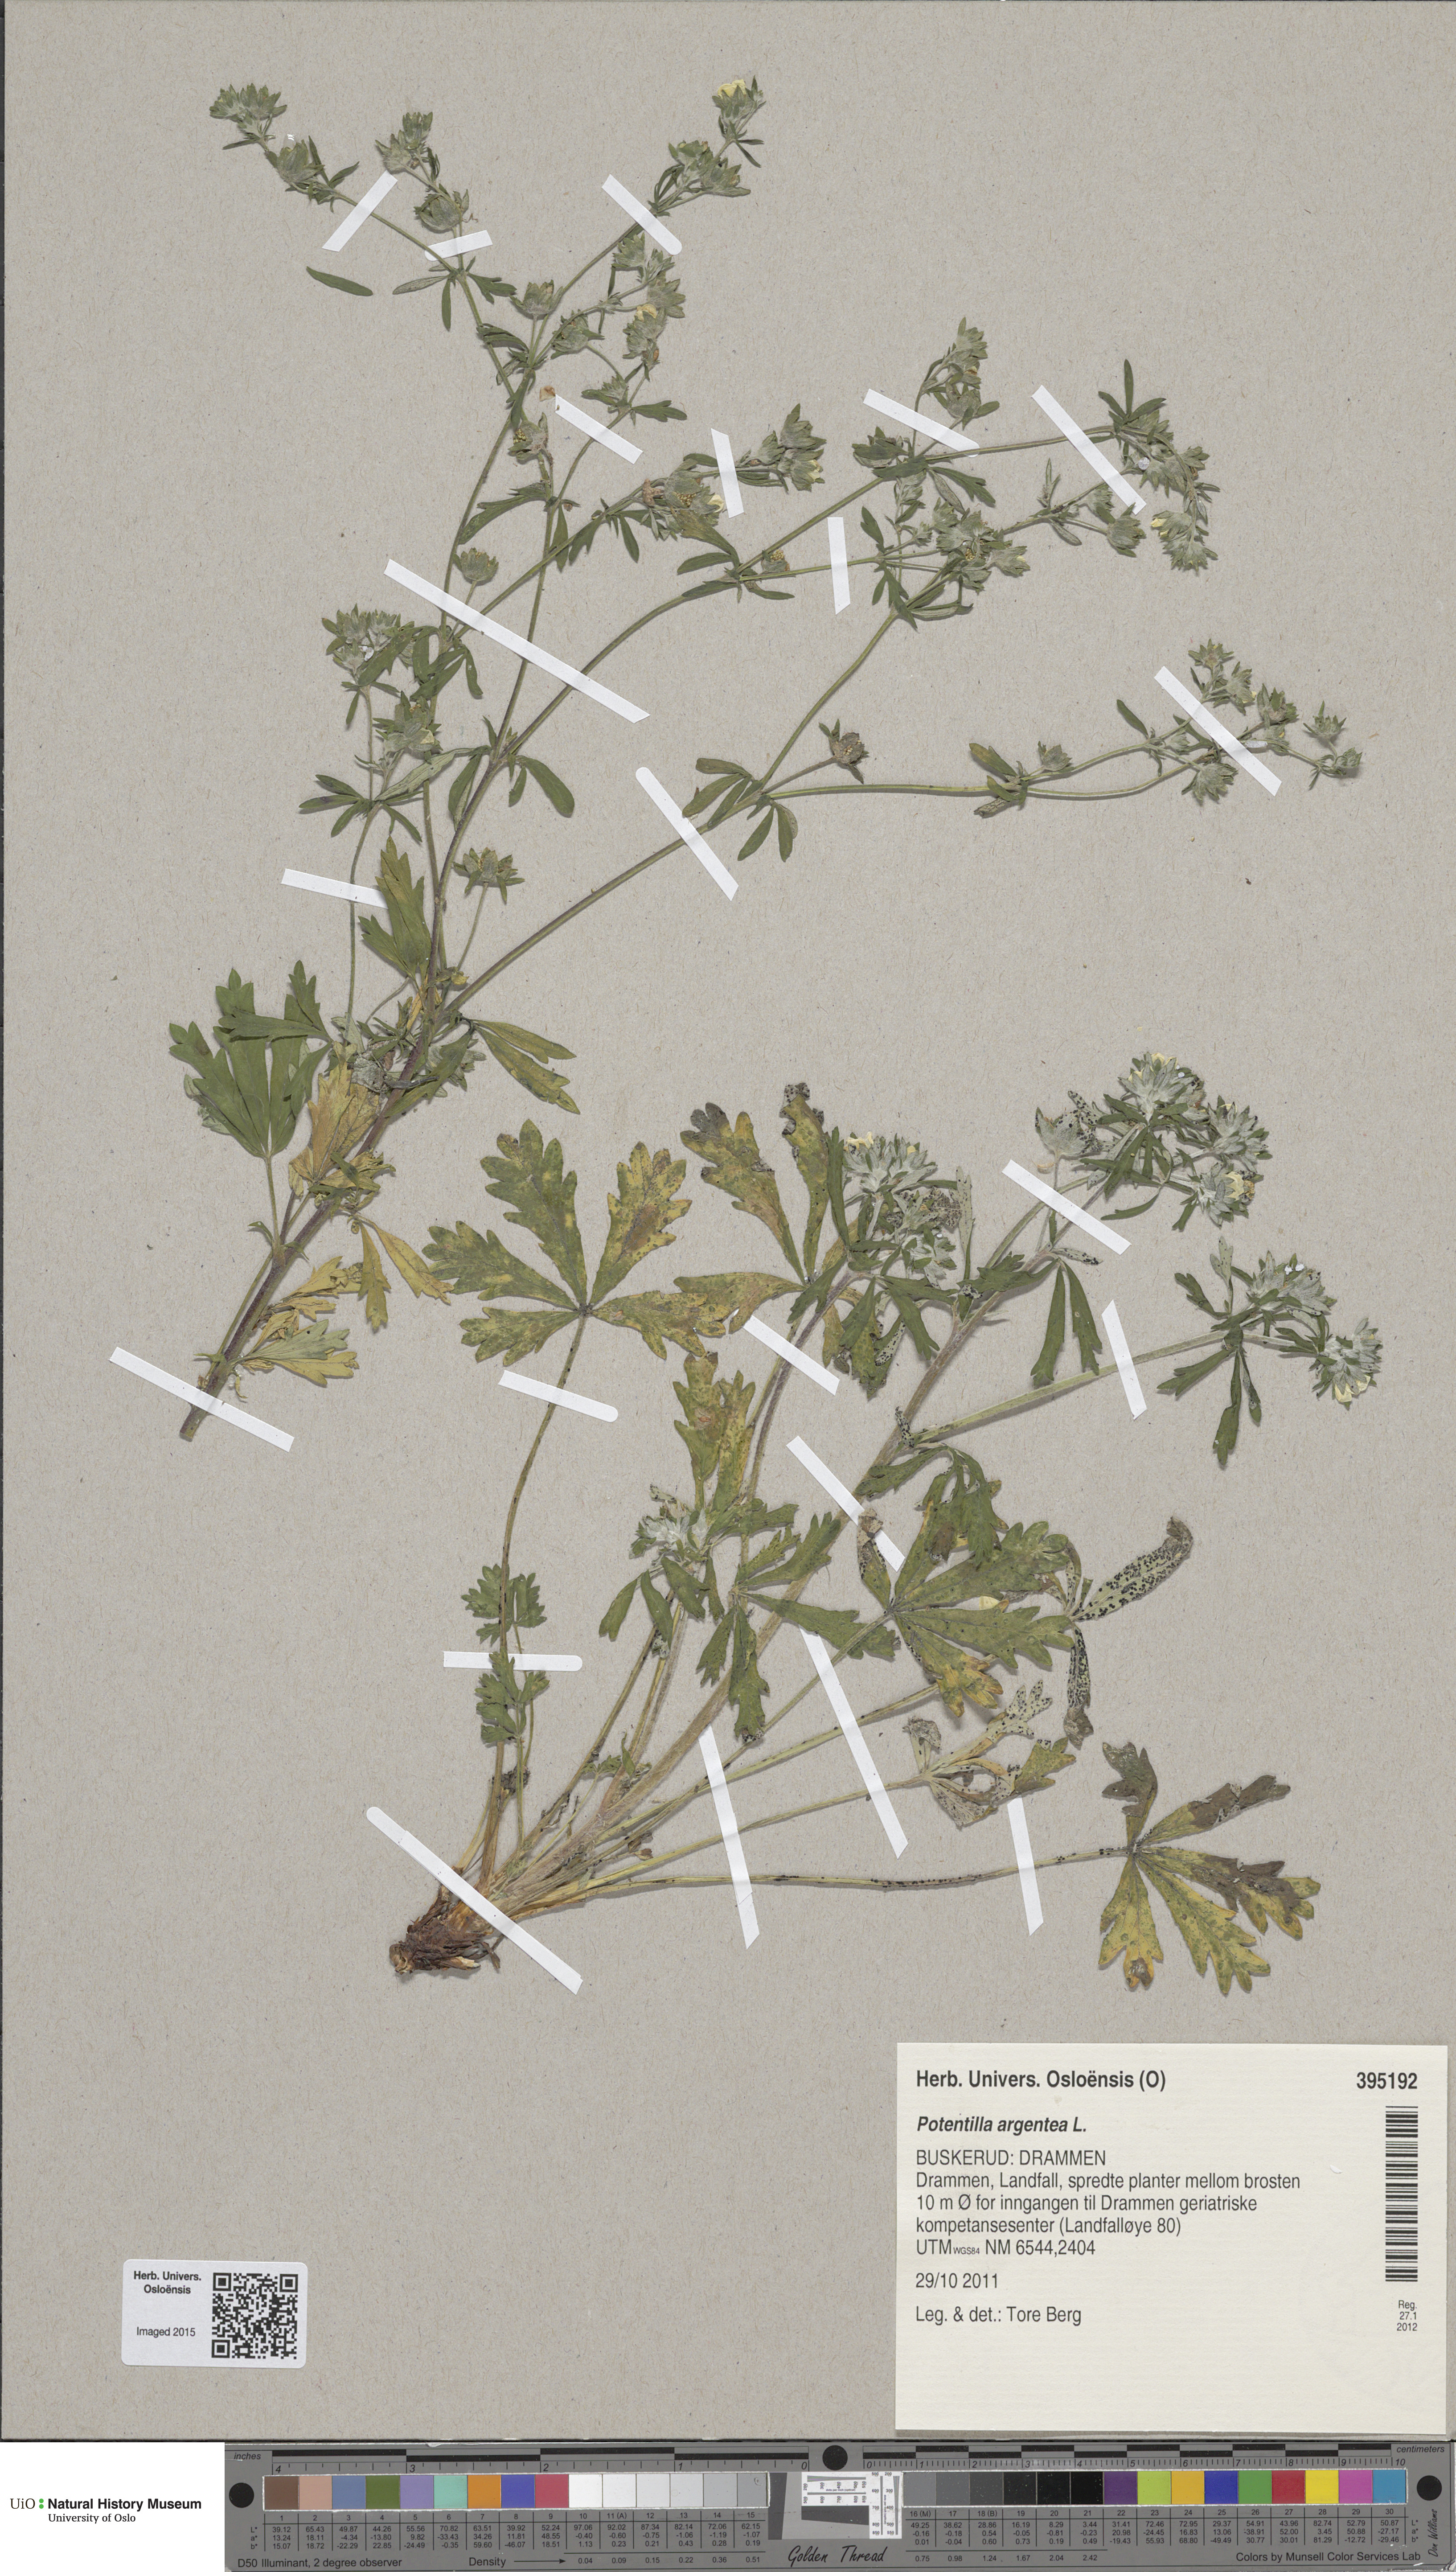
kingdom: Plantae
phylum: Tracheophyta
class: Magnoliopsida
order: Rosales
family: Rosaceae
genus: Potentilla
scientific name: Potentilla argentea
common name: Hoary cinquefoil
